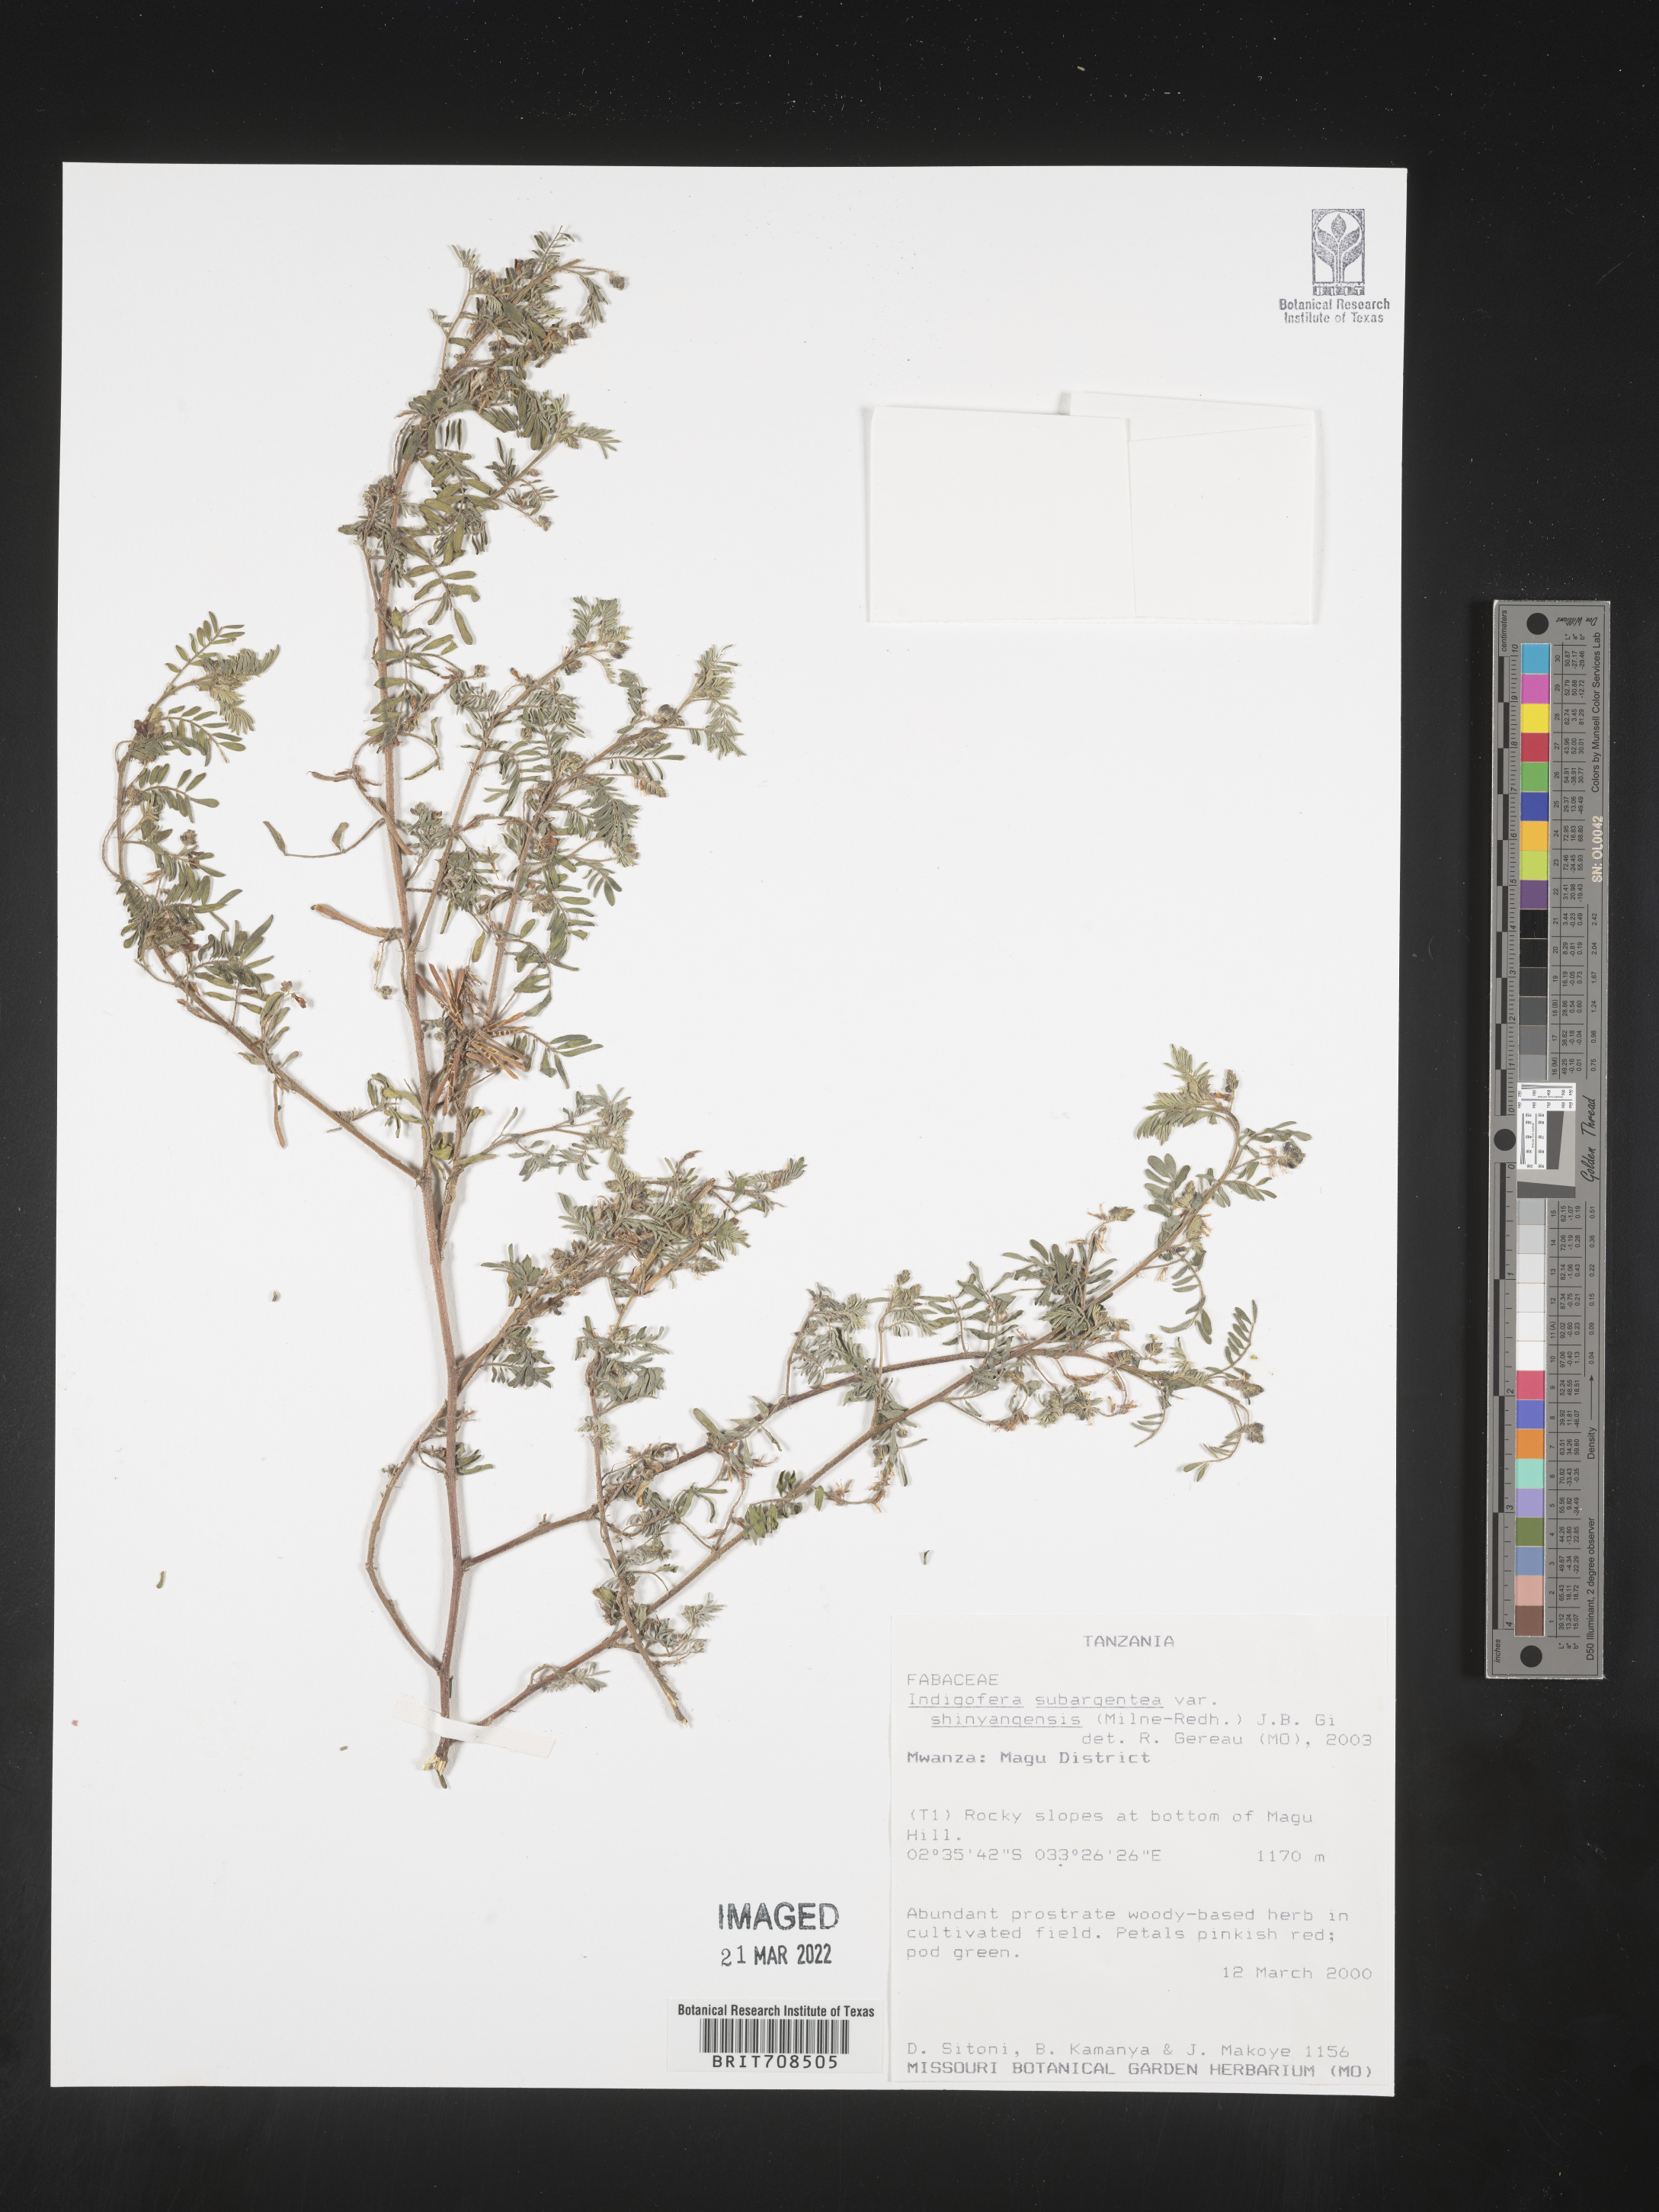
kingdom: Plantae
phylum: Tracheophyta
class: Magnoliopsida
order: Fabales
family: Fabaceae
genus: Indigofera
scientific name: Indigofera
